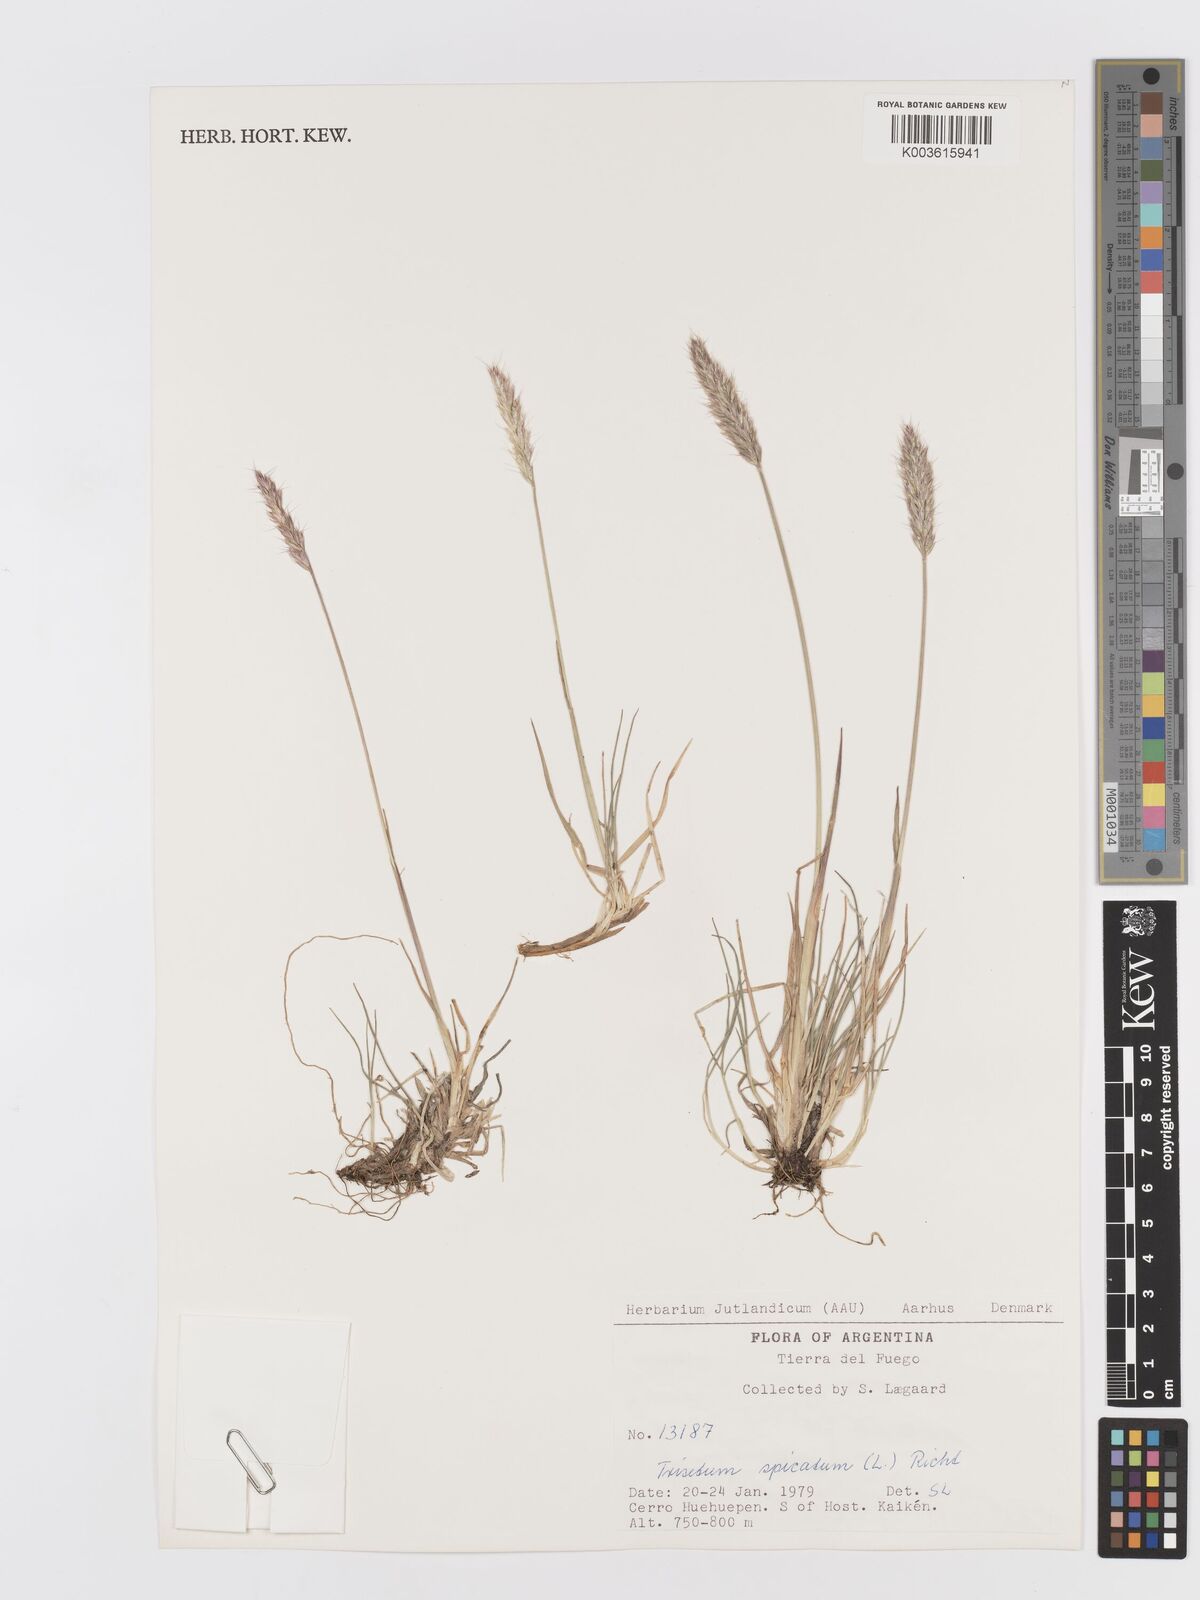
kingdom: Plantae
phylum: Tracheophyta
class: Liliopsida
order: Poales
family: Poaceae
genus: Koeleria
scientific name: Koeleria spicata
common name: Mountain trisetum
